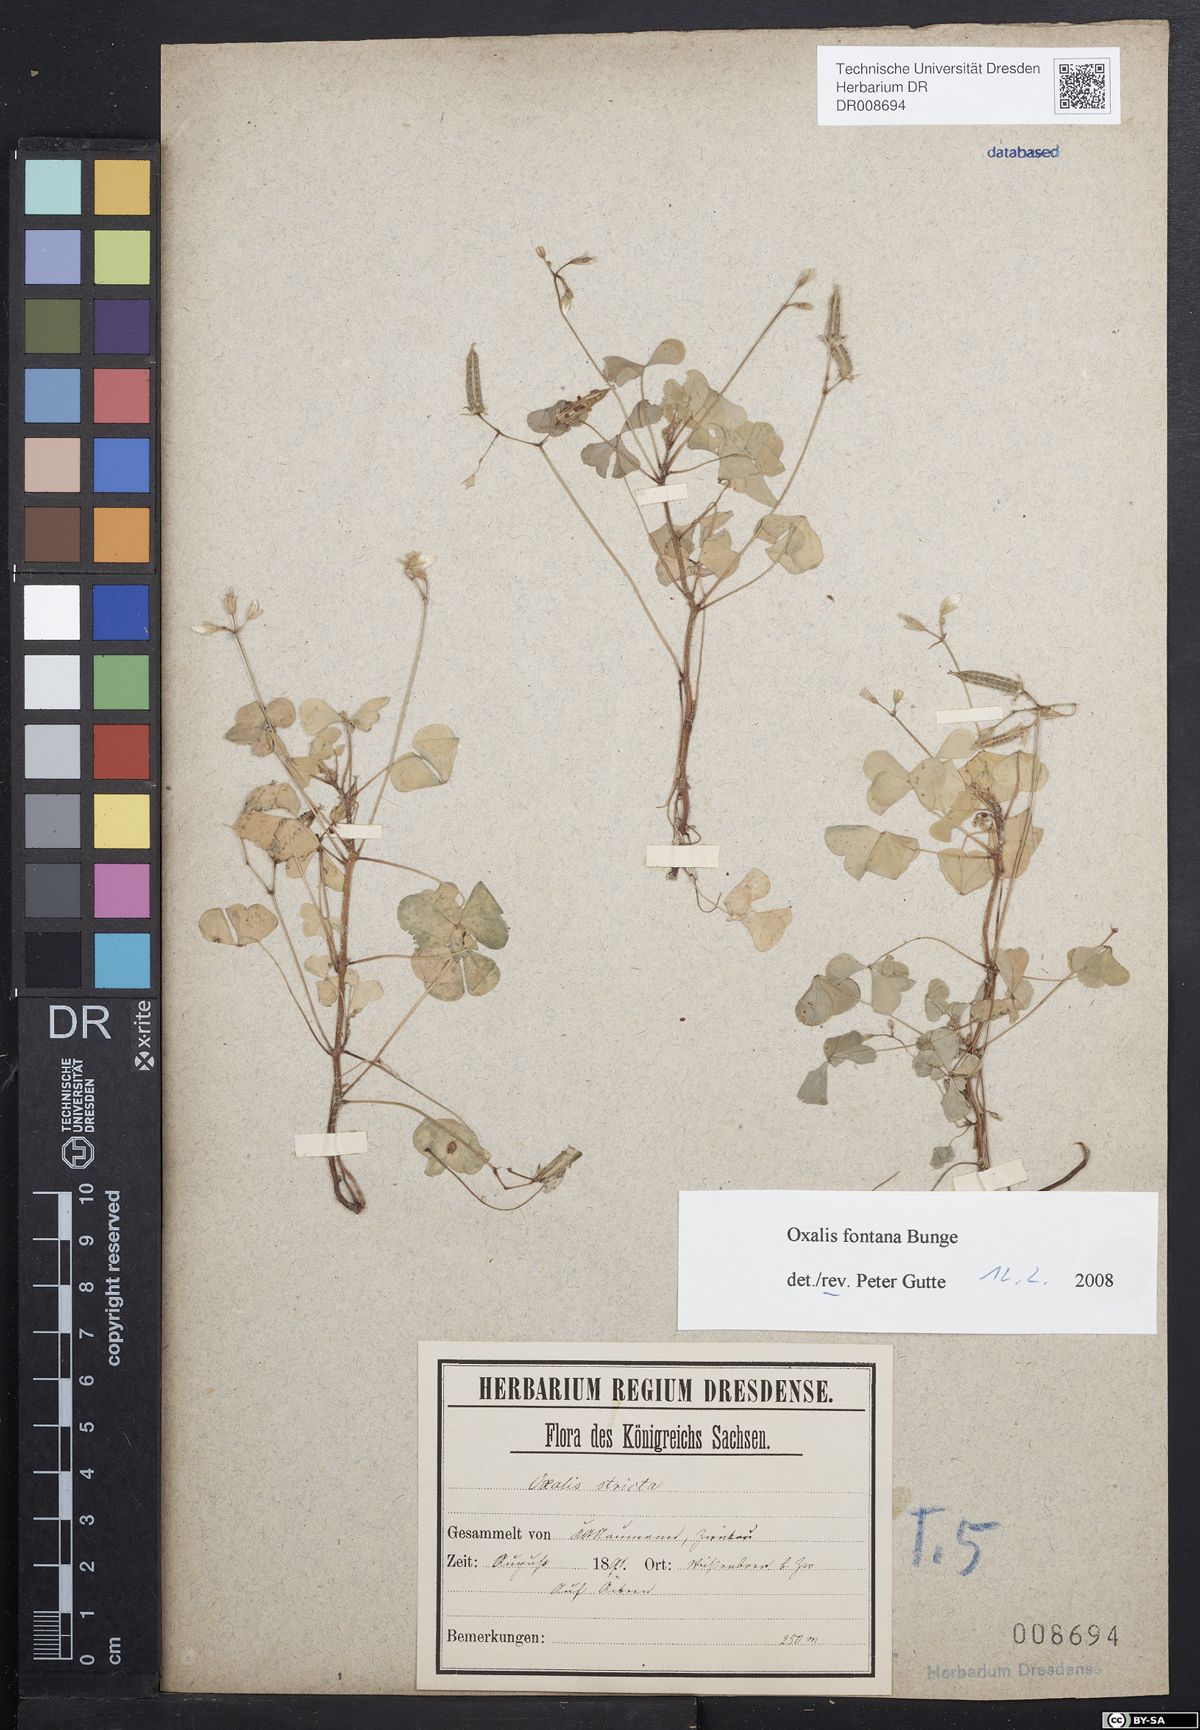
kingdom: Plantae
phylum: Tracheophyta
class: Magnoliopsida
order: Oxalidales
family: Oxalidaceae
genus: Oxalis
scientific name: Oxalis stricta
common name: Upright yellow-sorrel
